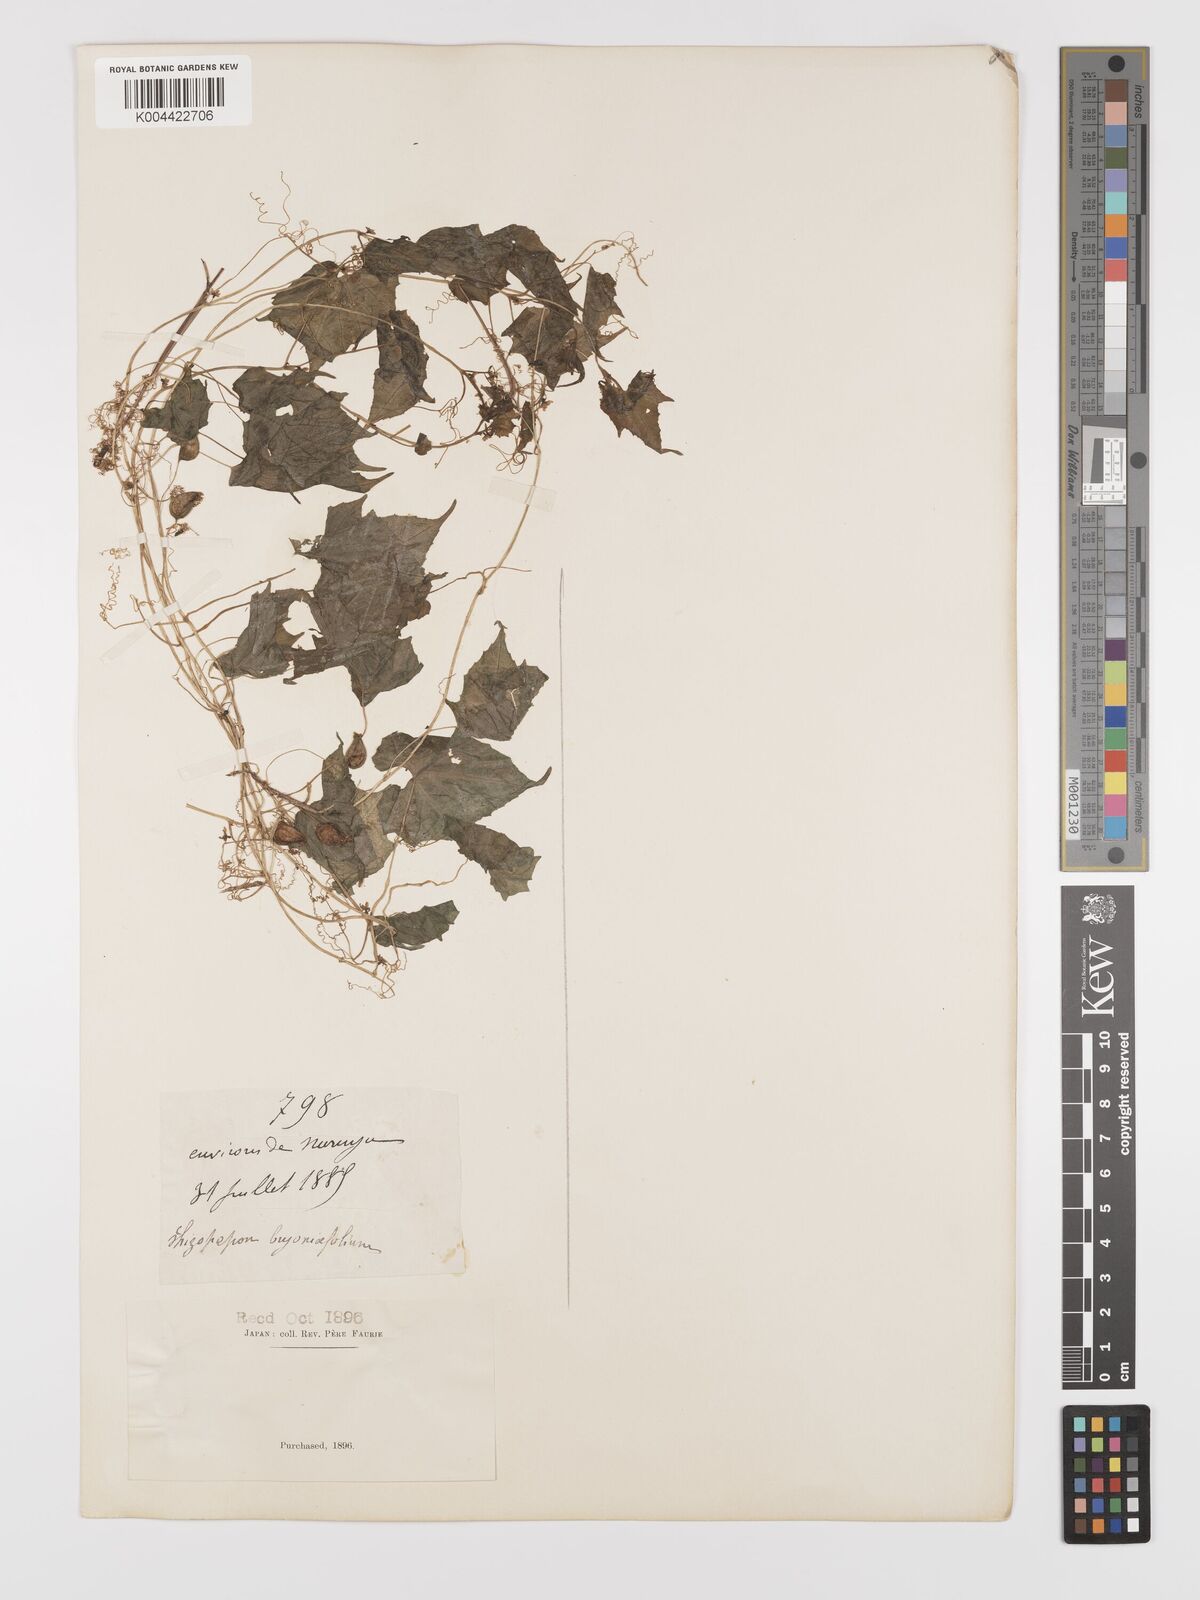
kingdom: Plantae
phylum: Tracheophyta
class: Magnoliopsida
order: Cucurbitales
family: Cucurbitaceae
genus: Schizopepon
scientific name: Schizopepon bryoniifolius
